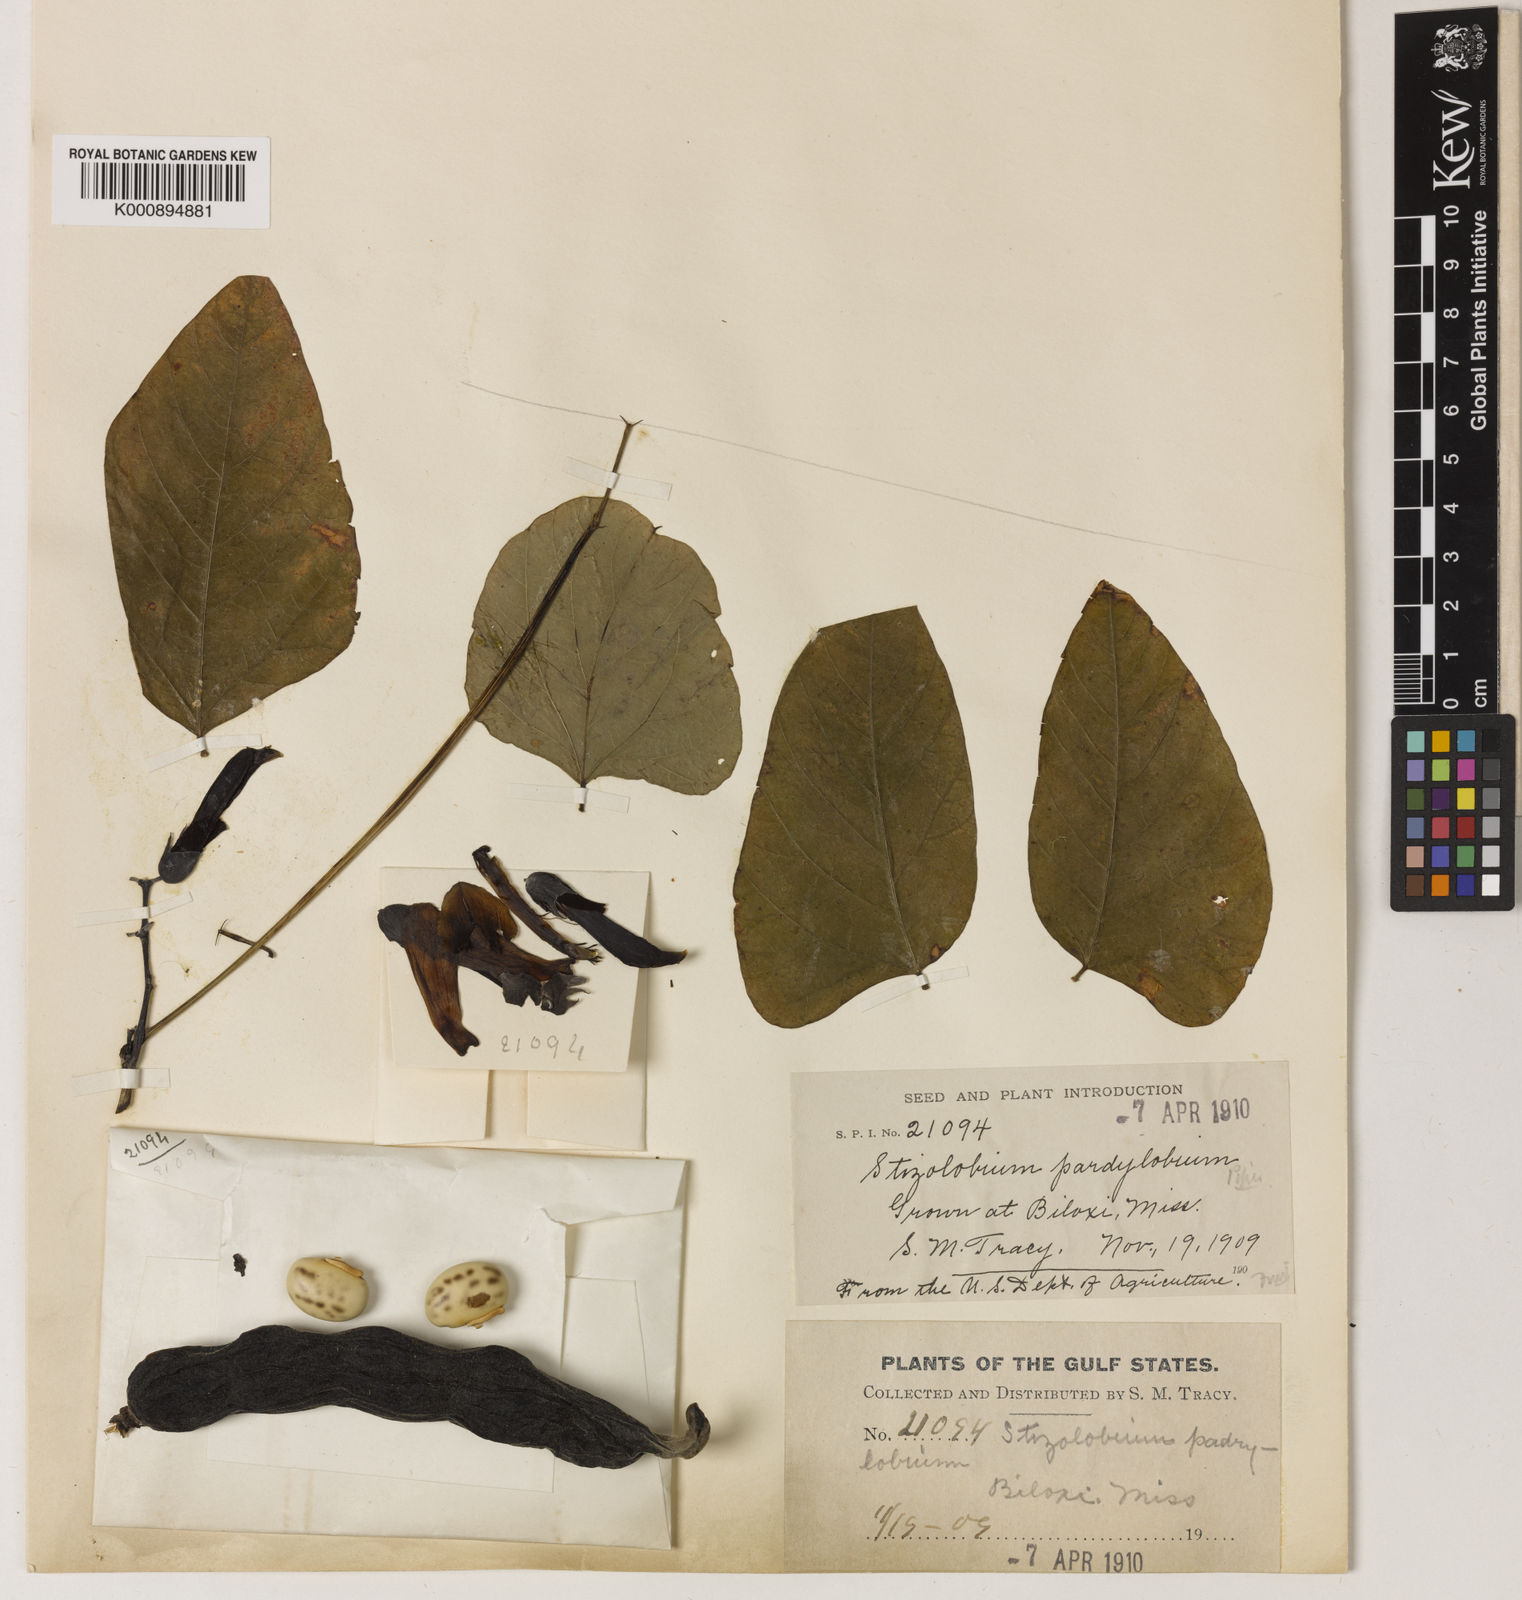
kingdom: Plantae
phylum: Tracheophyta
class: Magnoliopsida
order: Fabales
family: Fabaceae
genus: Mucuna
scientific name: Mucuna pruriens
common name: Cow-itch
